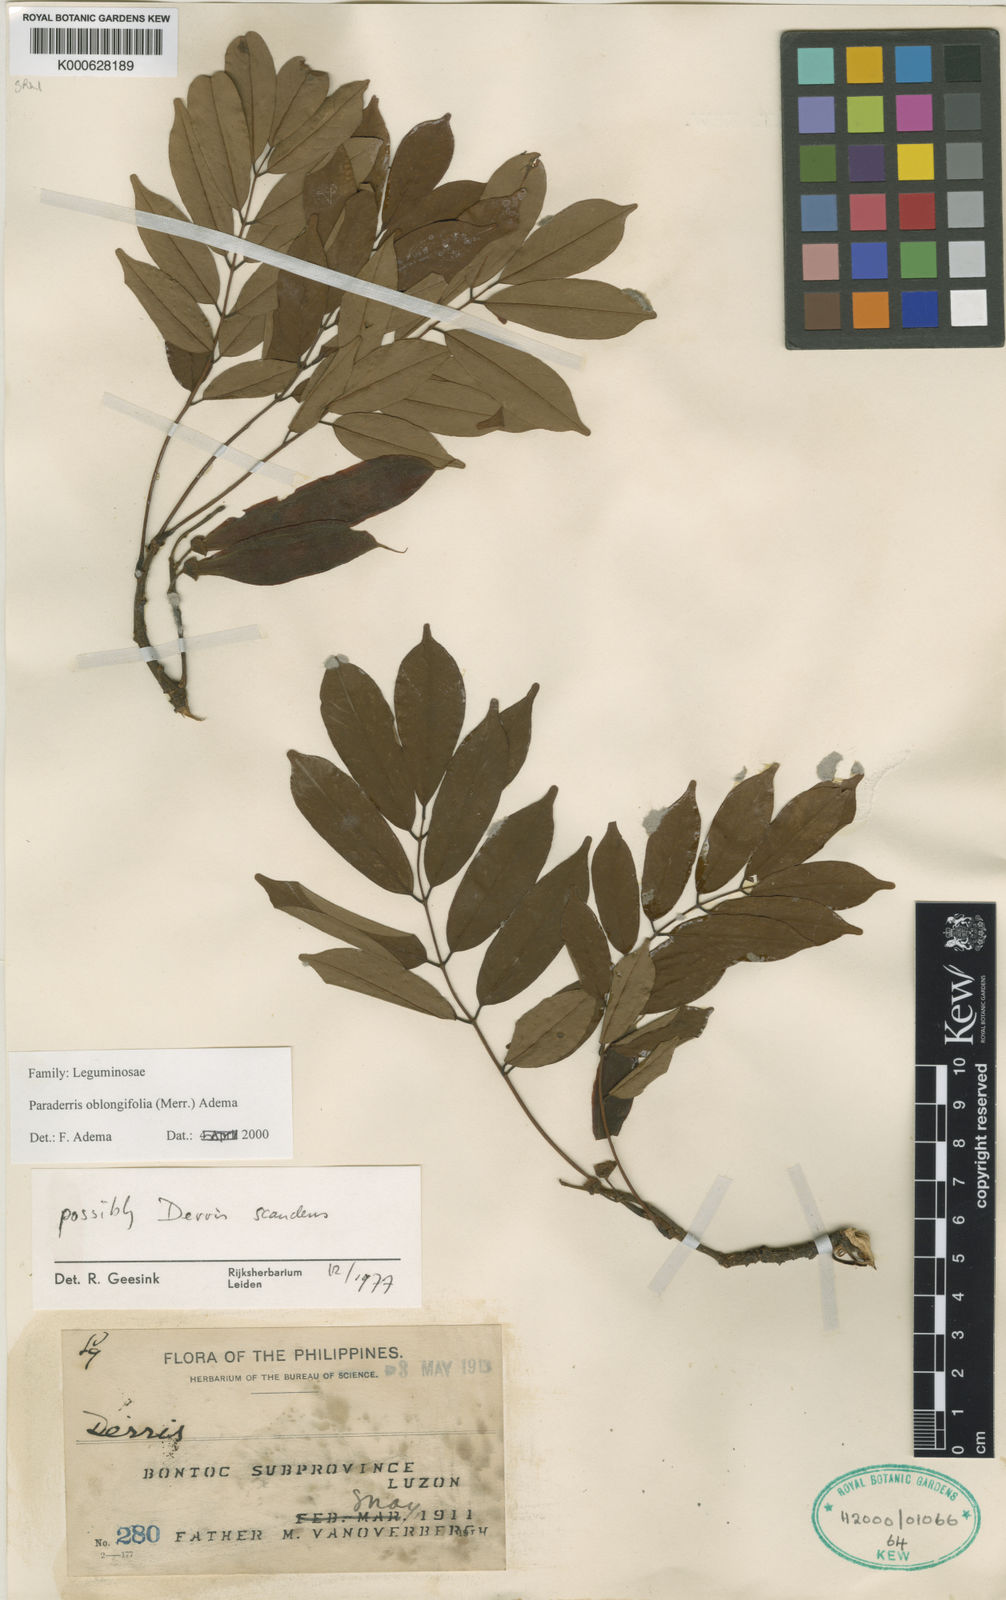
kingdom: Plantae
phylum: Tracheophyta
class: Magnoliopsida
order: Fabales
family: Fabaceae
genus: Derris
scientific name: Derris oblongifolia
